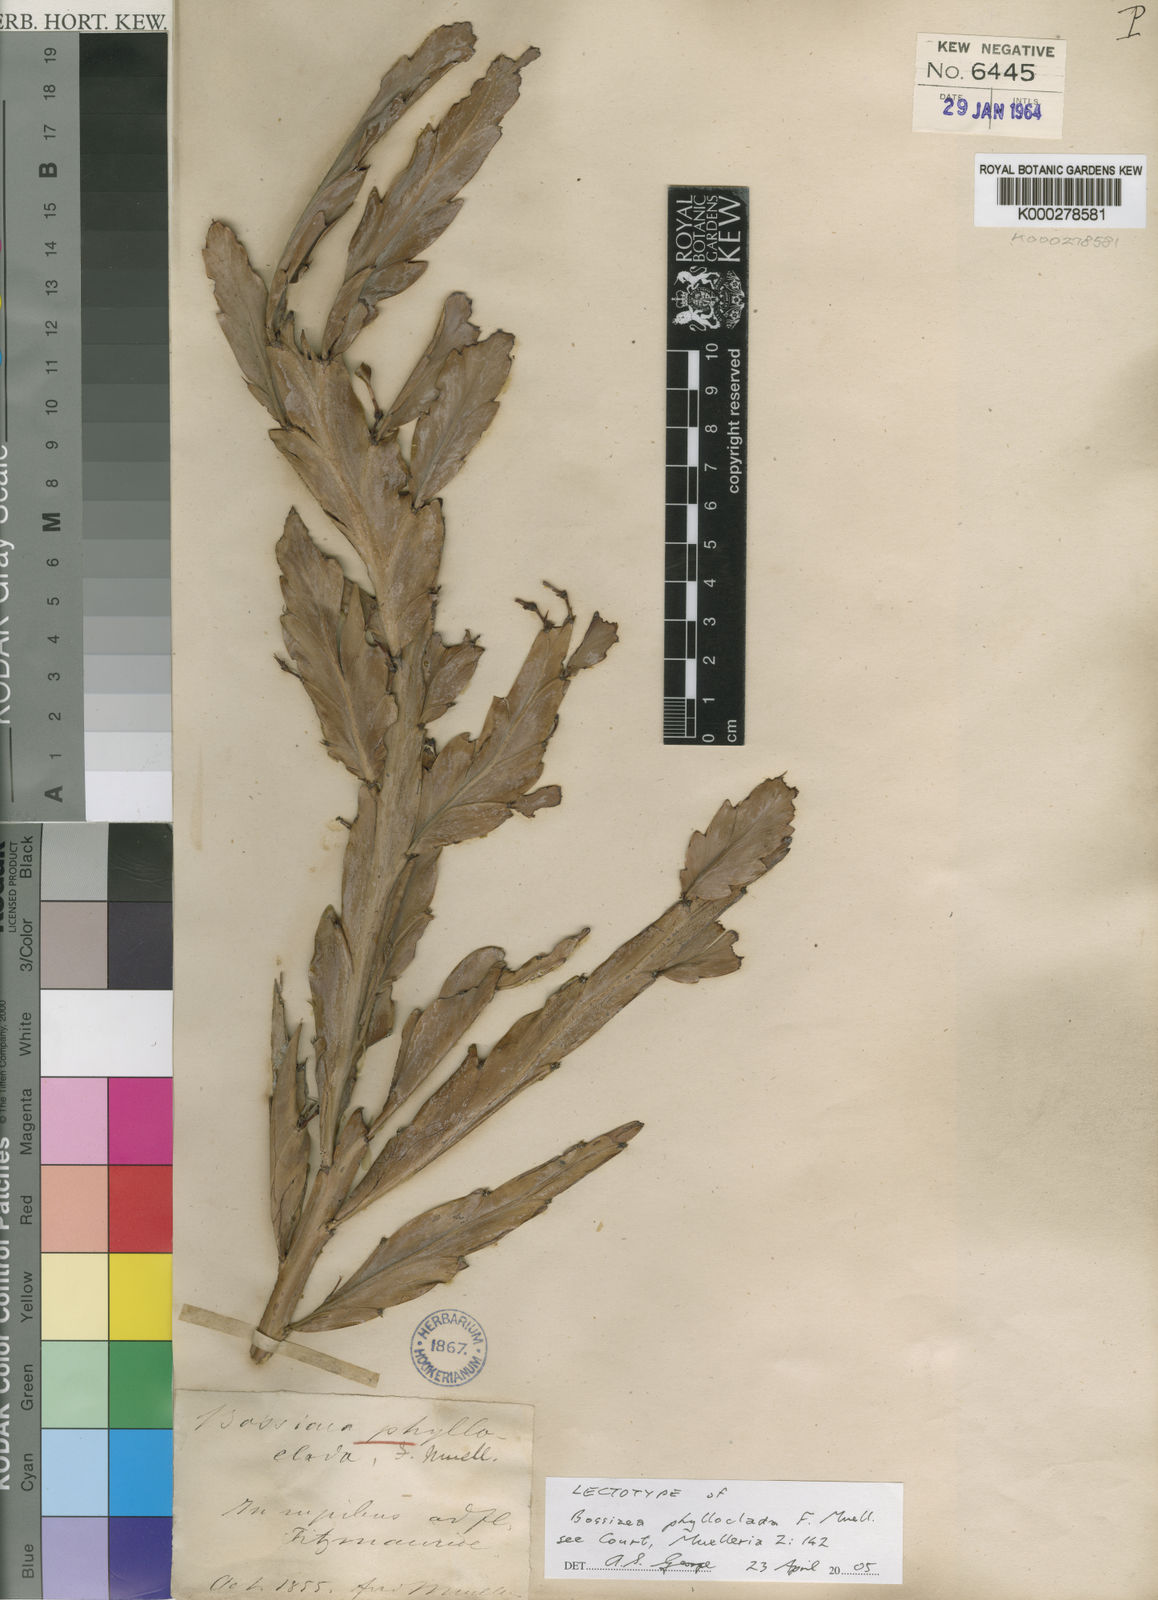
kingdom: Plantae
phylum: Tracheophyta
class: Magnoliopsida
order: Fabales
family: Fabaceae
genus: Bossiaea
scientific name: Bossiaea phylloclada
